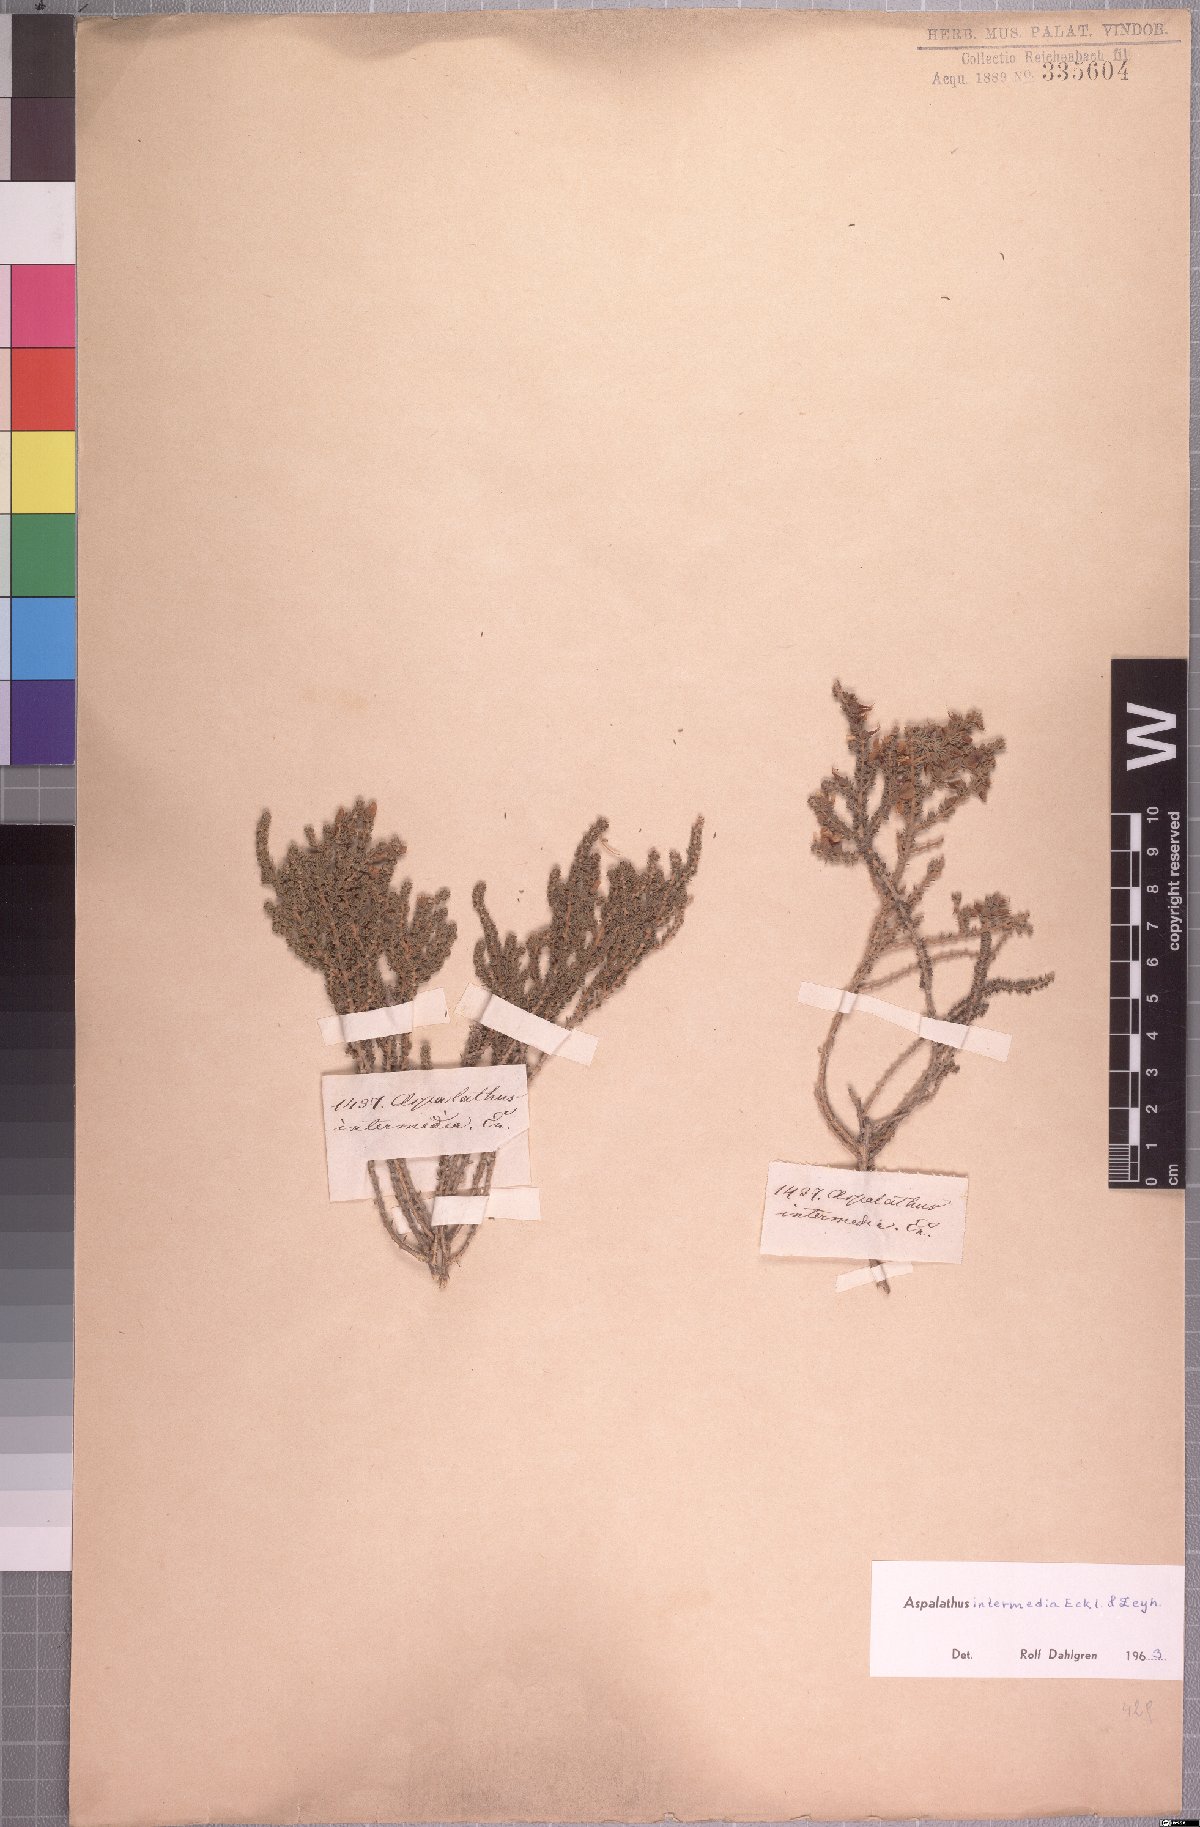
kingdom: Plantae
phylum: Tracheophyta
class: Magnoliopsida
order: Fabales
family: Fabaceae
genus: Aspalathus
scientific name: Aspalathus intermedia
